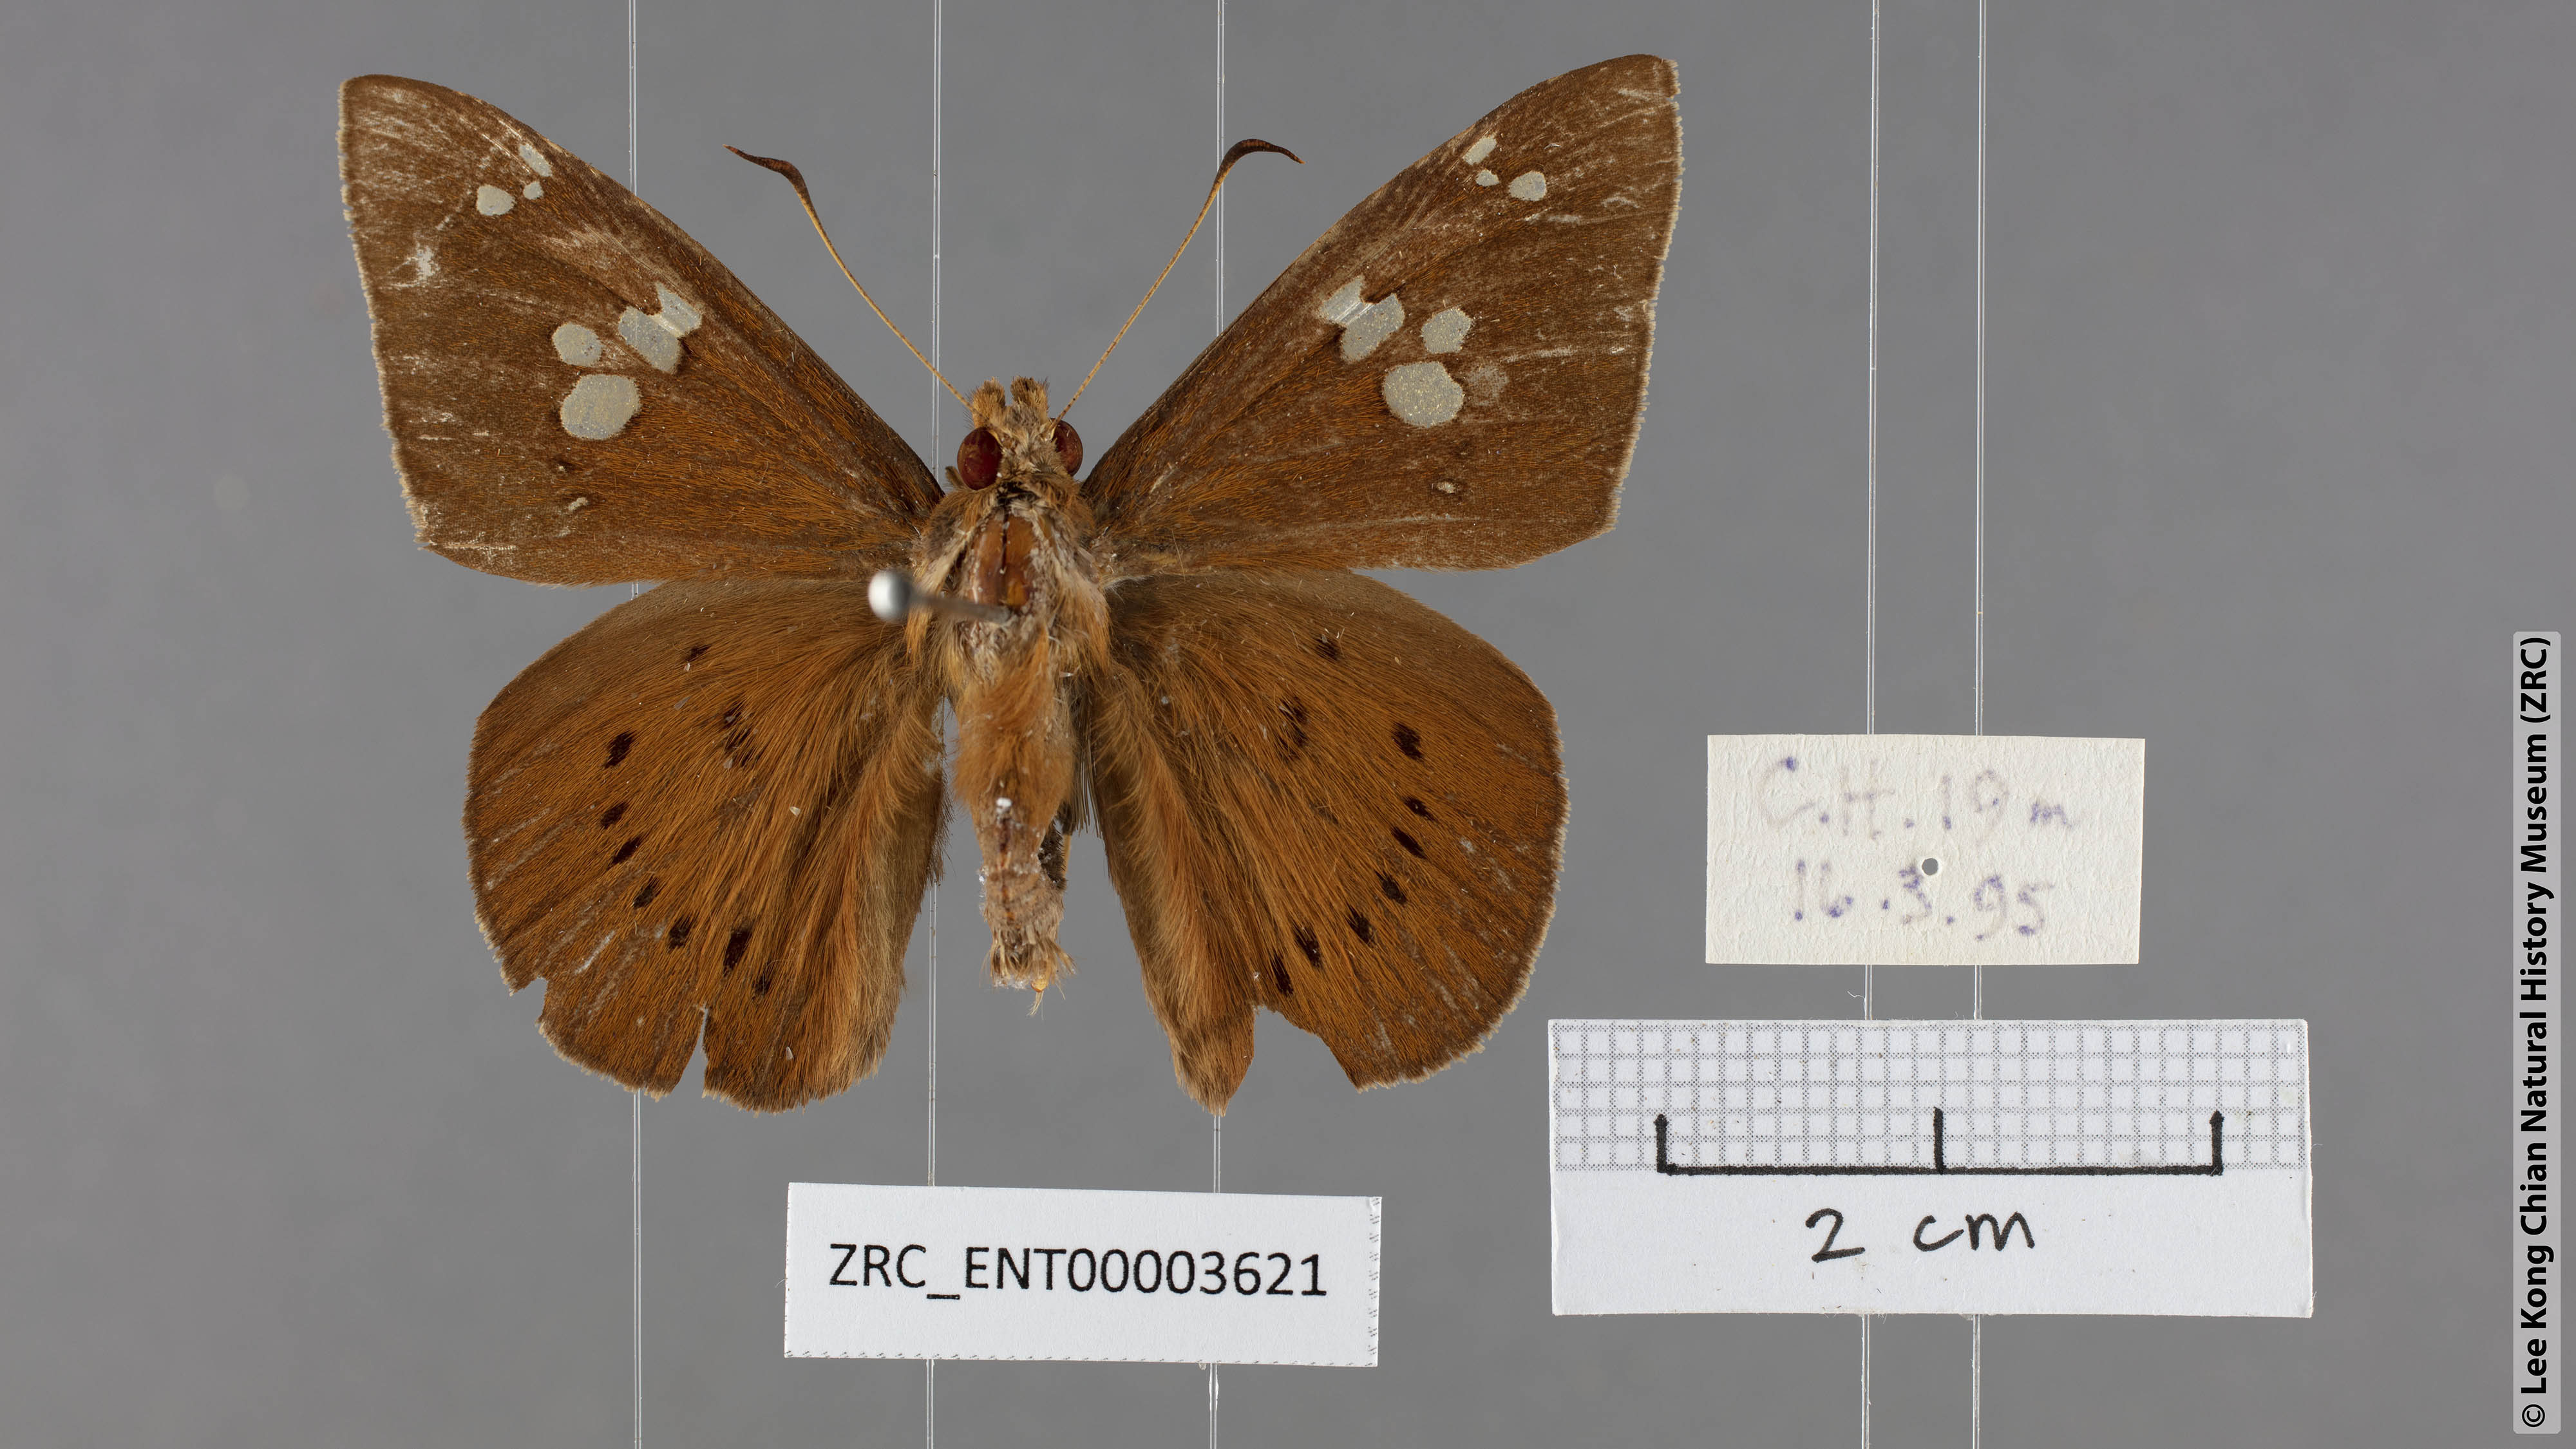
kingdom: Animalia
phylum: Arthropoda
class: Insecta
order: Lepidoptera
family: Hesperiidae
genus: Capila
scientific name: Capila phanaeus
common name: Fulvous dawnfly
